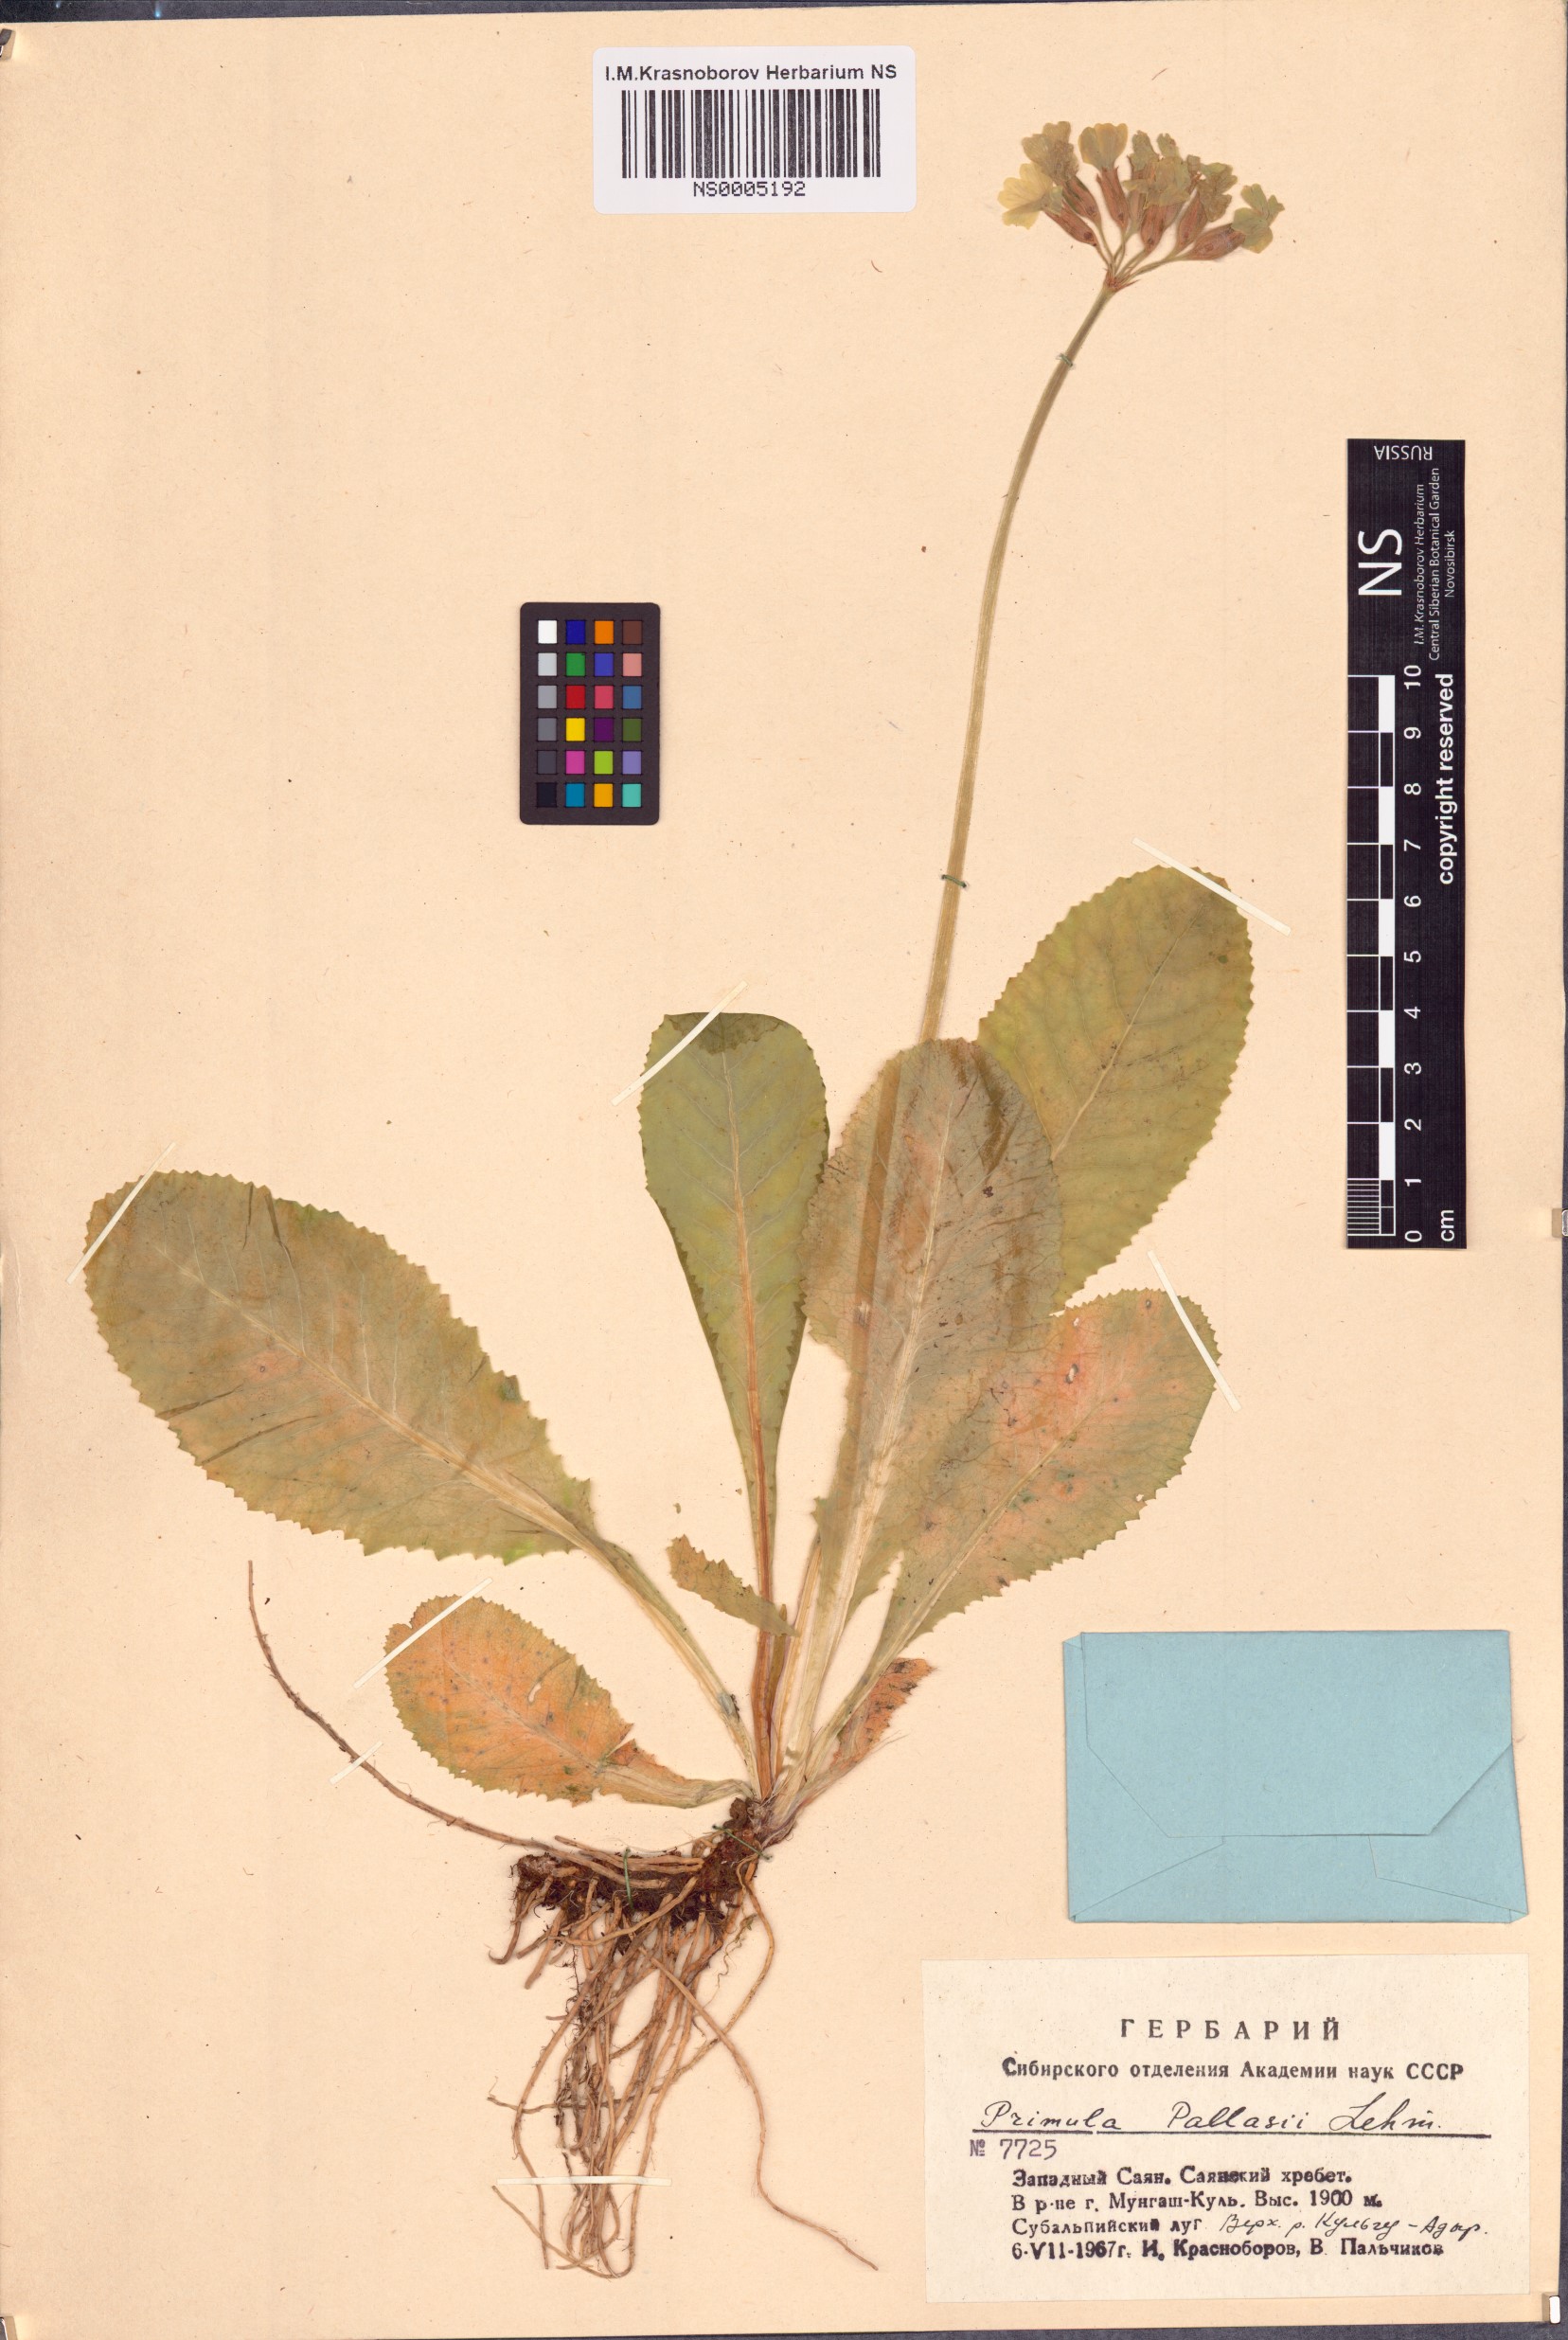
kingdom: Plantae
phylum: Tracheophyta
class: Magnoliopsida
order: Ericales
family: Primulaceae
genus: Primula
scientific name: Primula elatior
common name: Oxlip
